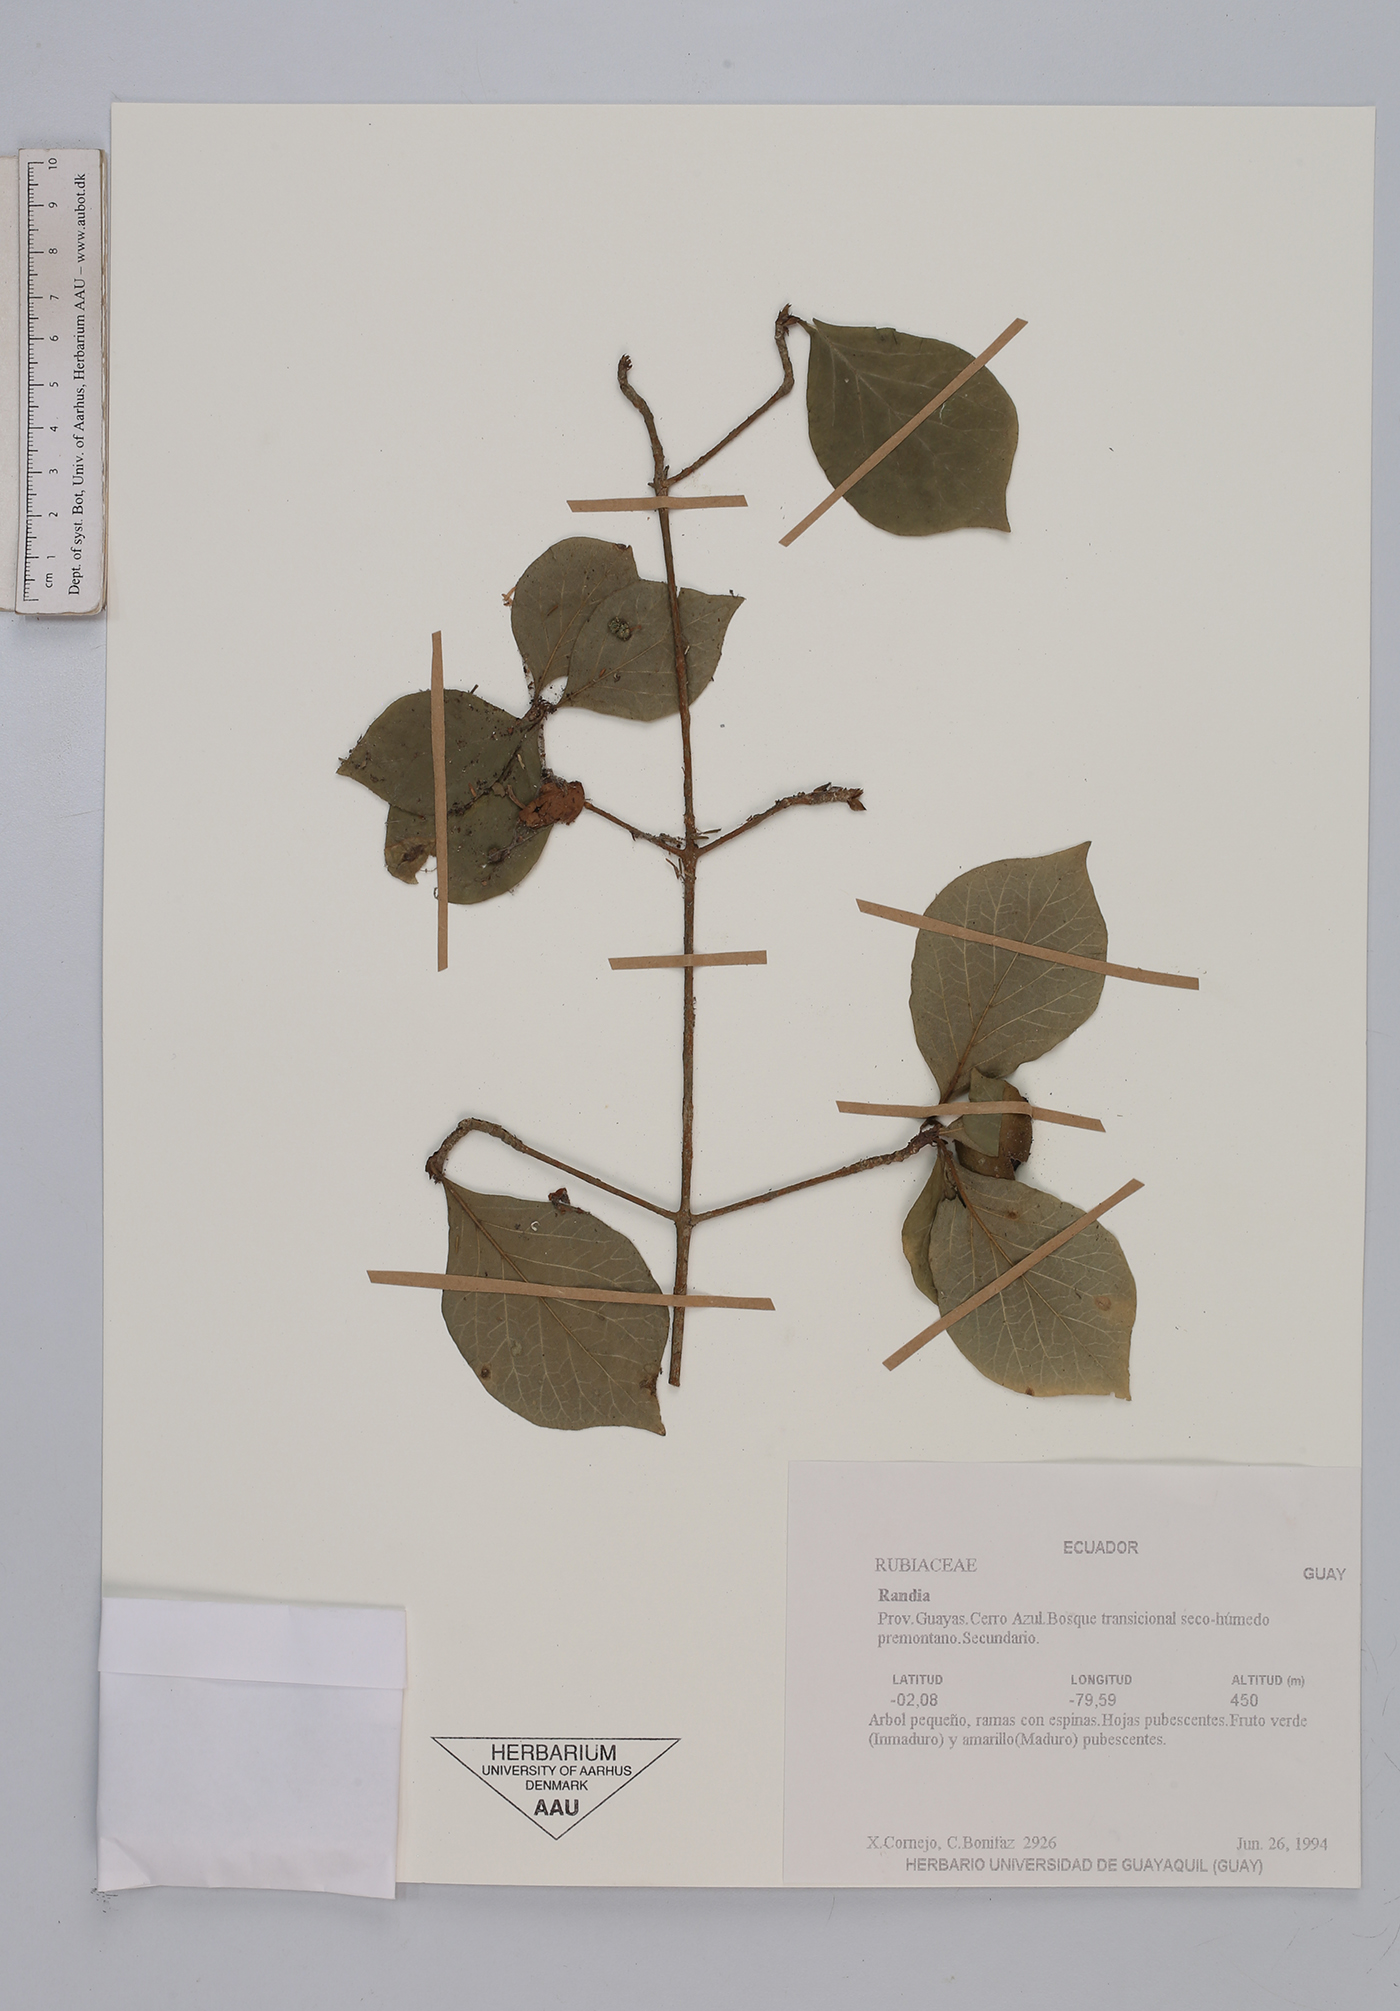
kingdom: Plantae
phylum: Tracheophyta
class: Magnoliopsida
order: Gentianales
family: Rubiaceae
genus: Randia
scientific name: Randia
